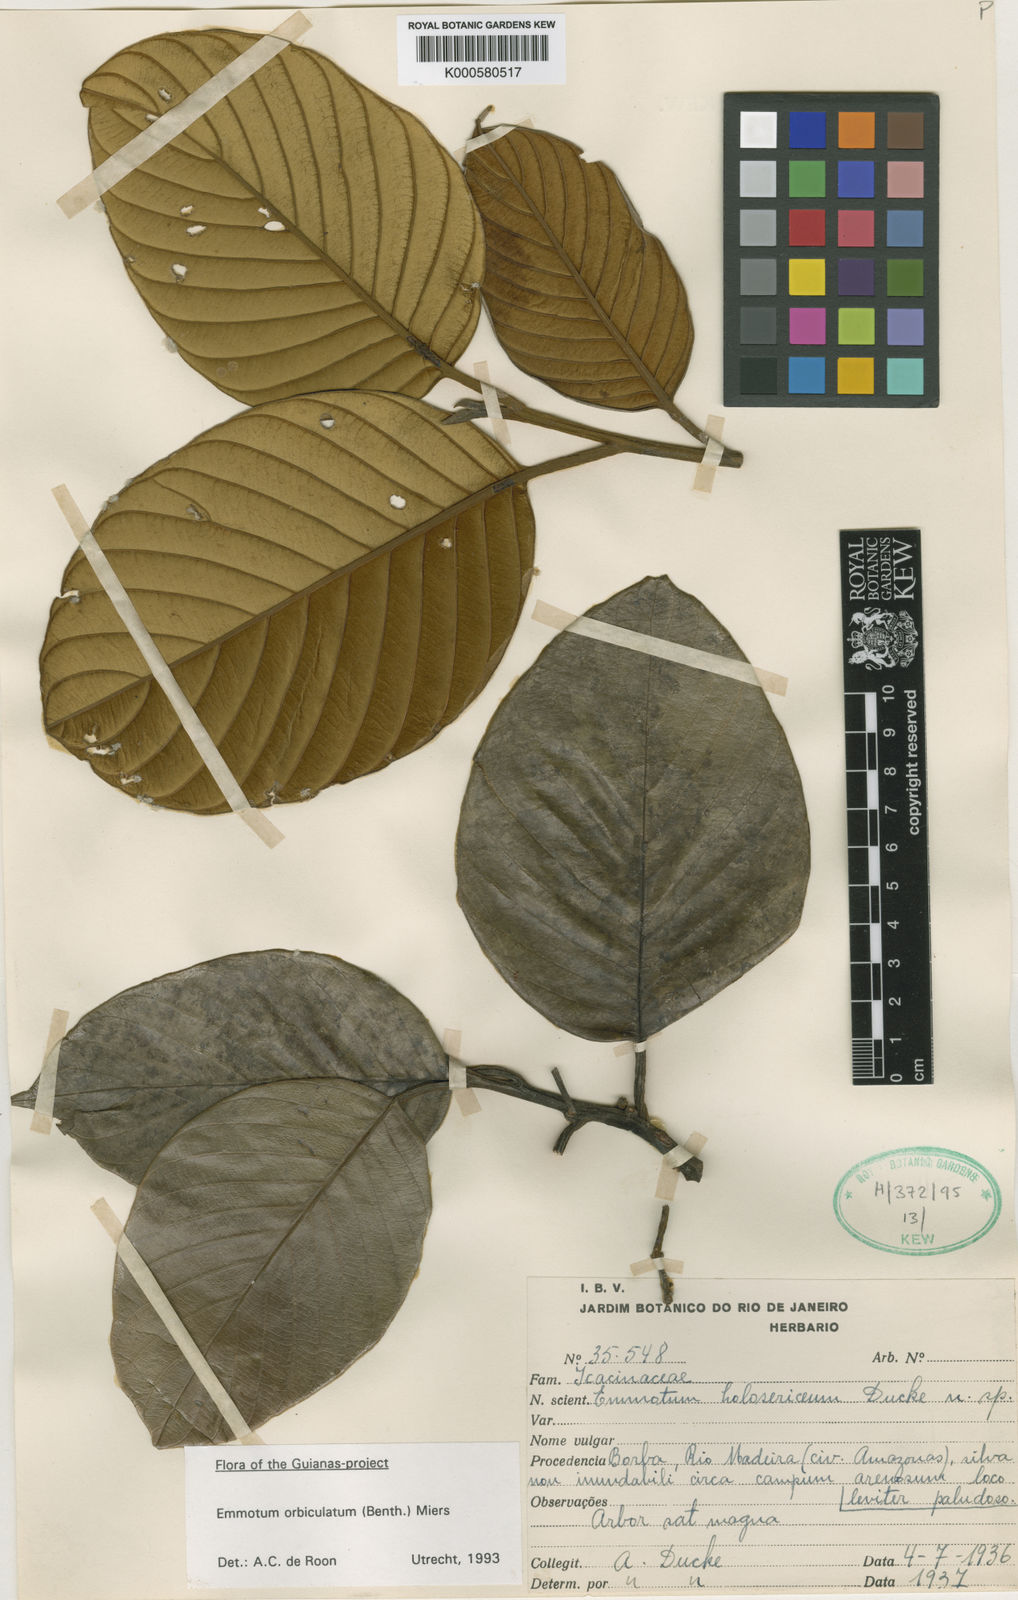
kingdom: Plantae
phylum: Tracheophyta
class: Magnoliopsida
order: Metteniusales
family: Metteniusaceae
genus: Emmotum
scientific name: Emmotum orbiculatum
